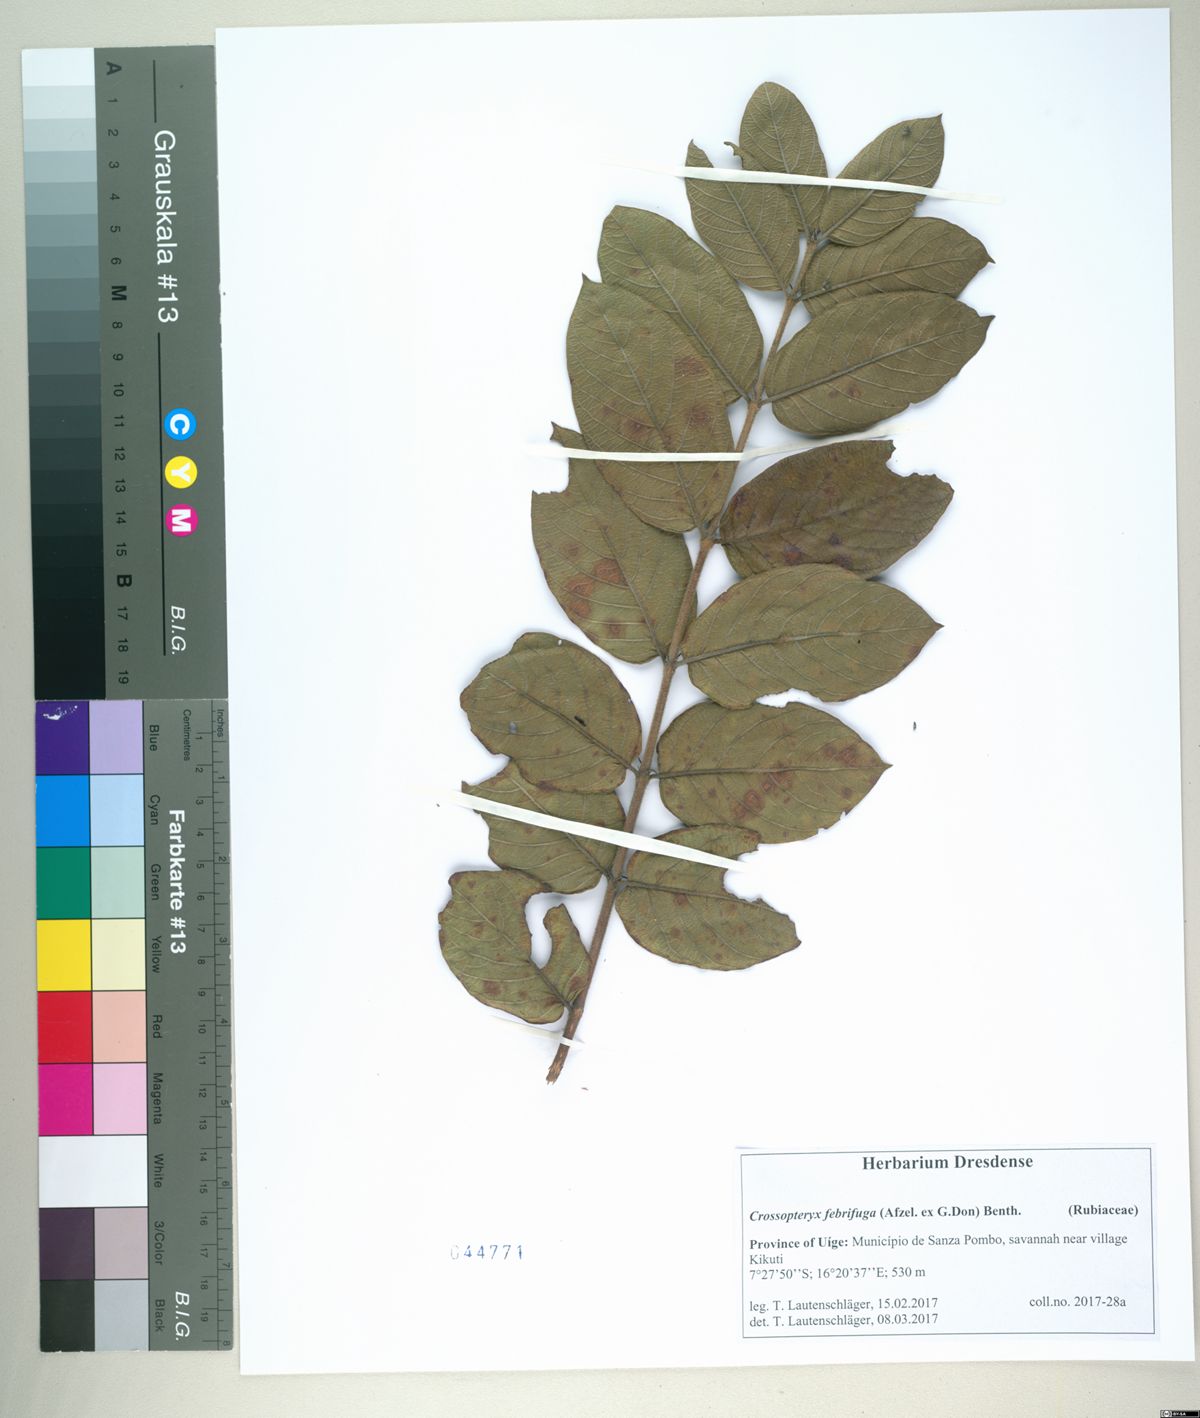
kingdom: Plantae
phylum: Tracheophyta
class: Magnoliopsida
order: Gentianales
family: Rubiaceae
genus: Crossopteryx
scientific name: Crossopteryx febrifuga
